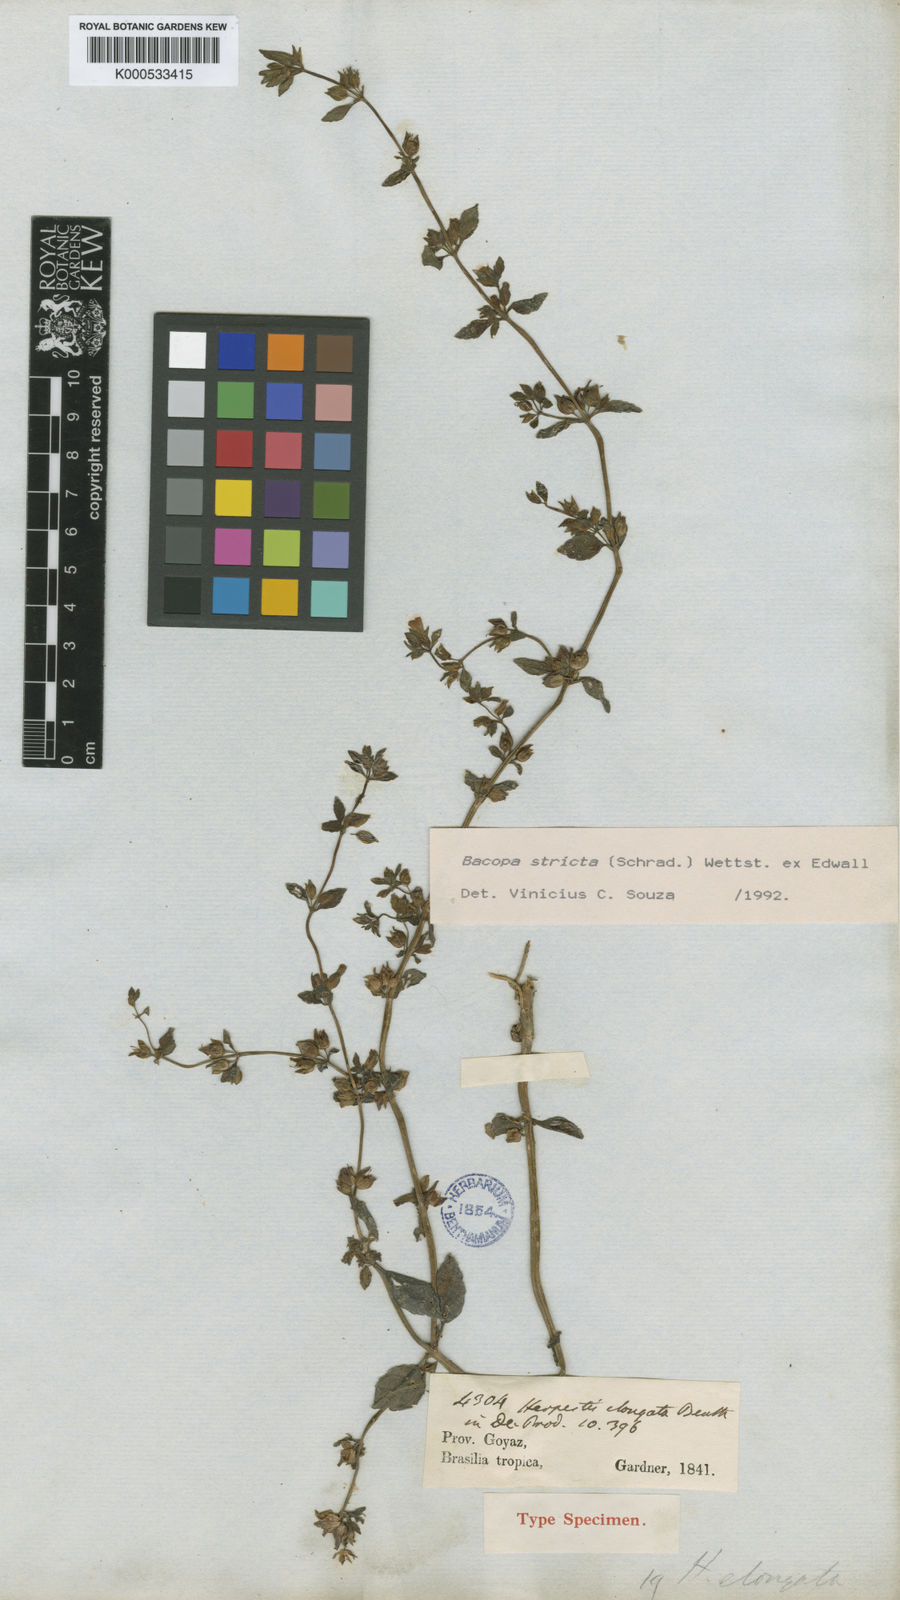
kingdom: Plantae
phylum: Tracheophyta
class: Magnoliopsida
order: Lamiales
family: Plantaginaceae
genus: Bacopa
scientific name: Bacopa stricta
